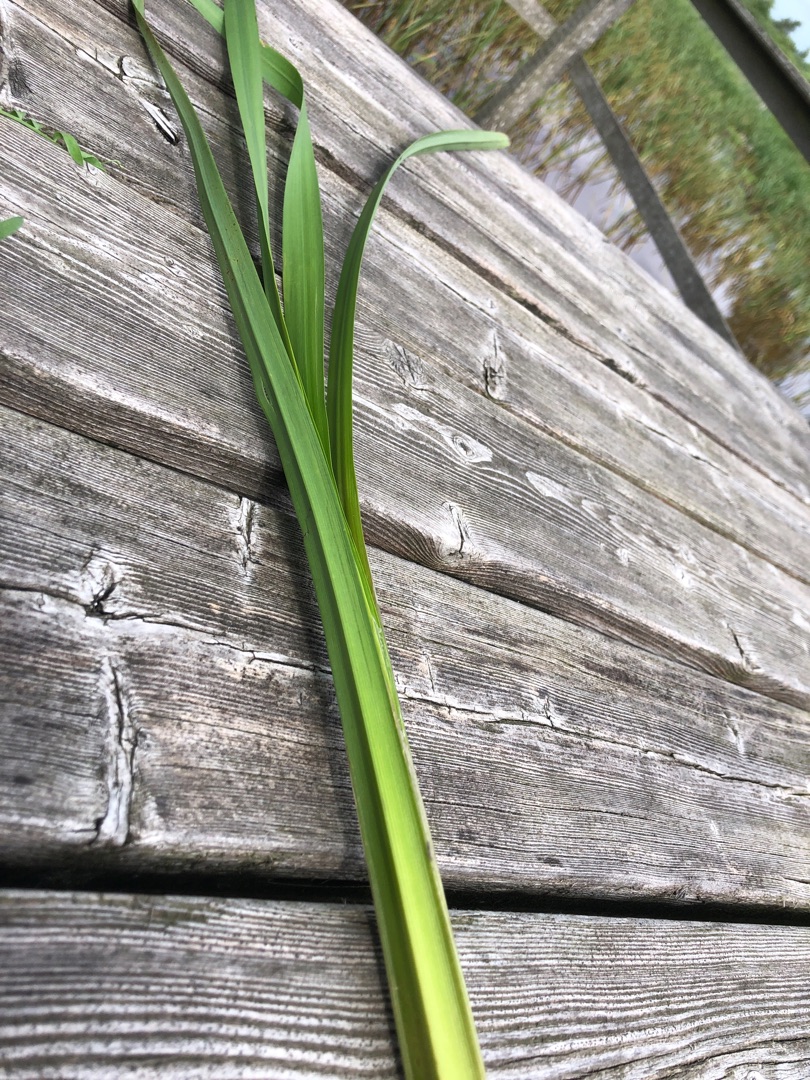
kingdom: Plantae
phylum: Tracheophyta
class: Liliopsida
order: Poales
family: Typhaceae
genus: Sparganium
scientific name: Sparganium erectum
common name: Grenet pindsvineknop
